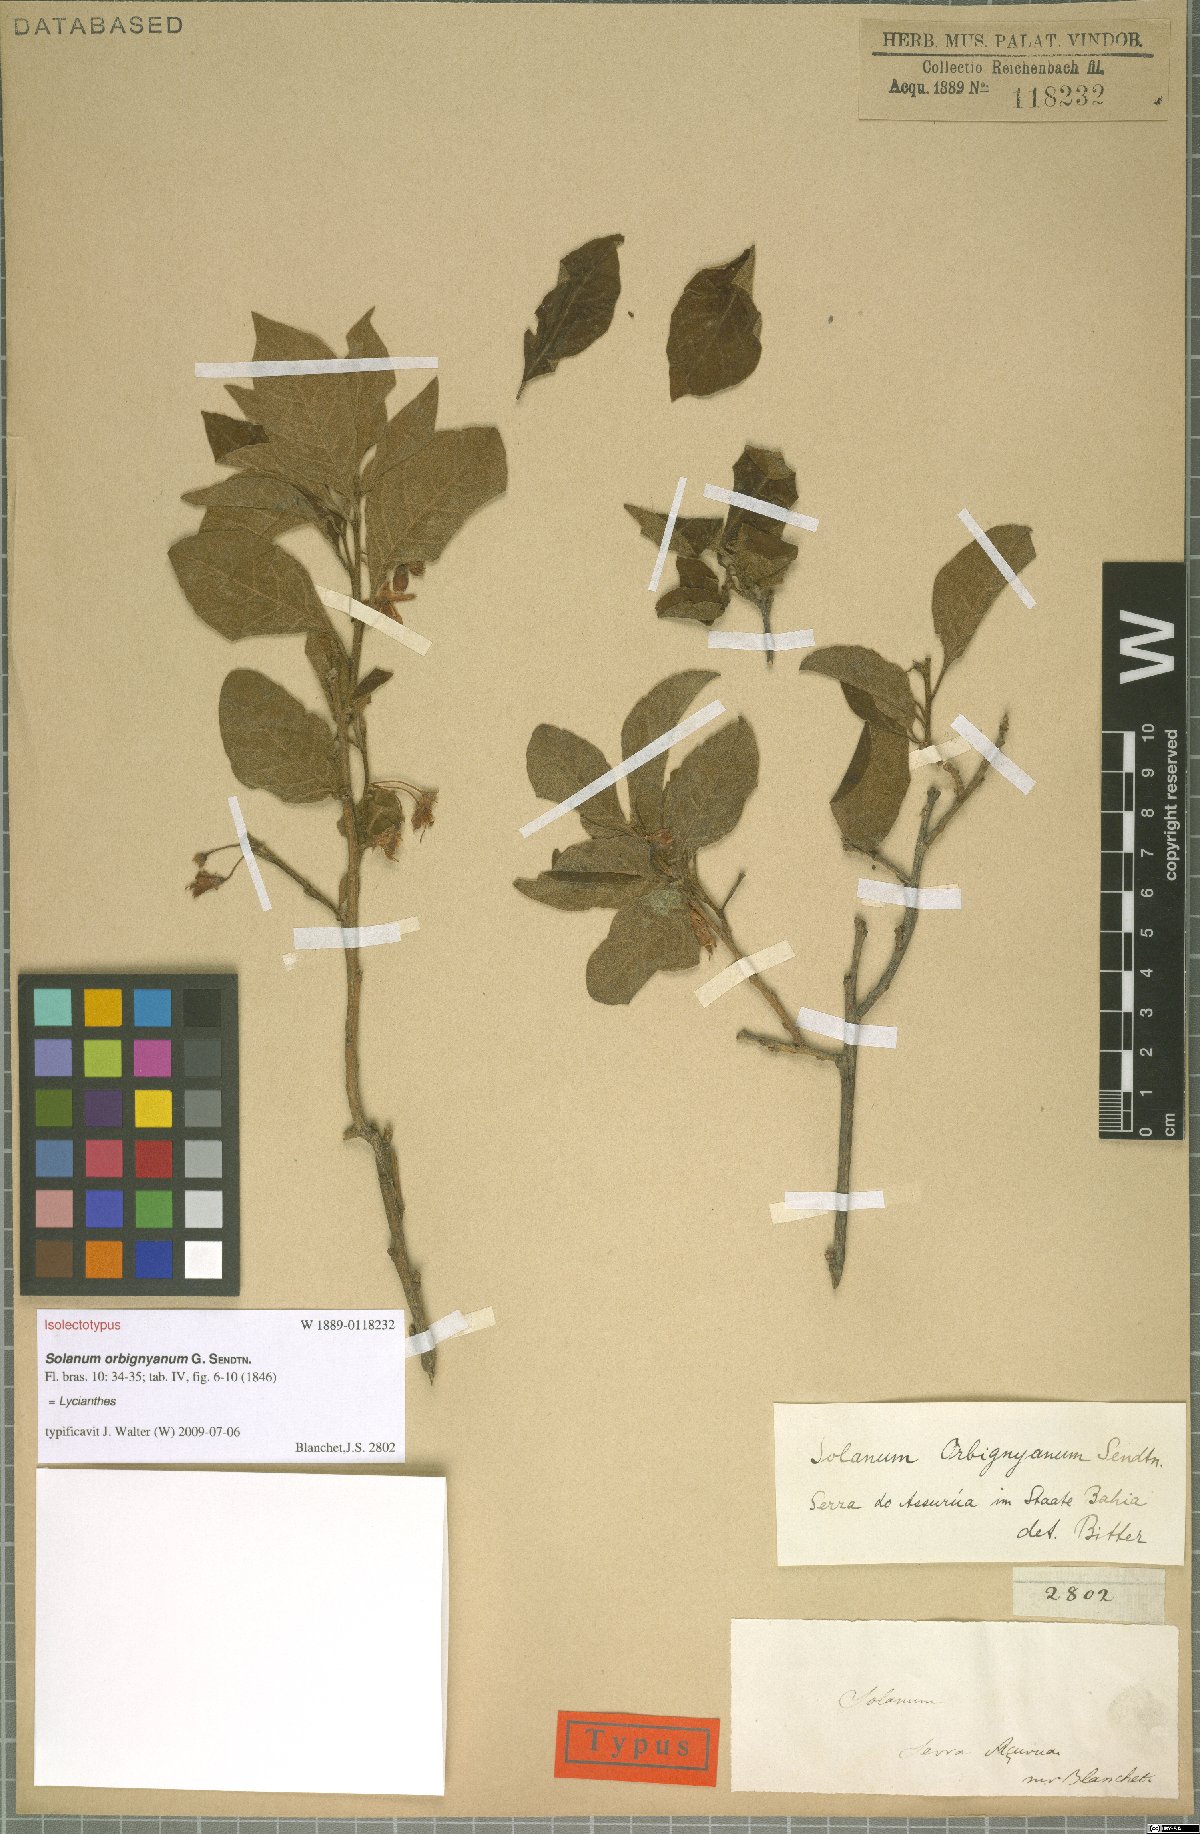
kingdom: Plantae
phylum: Tracheophyta
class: Magnoliopsida
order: Solanales
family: Solanaceae
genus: Solanum
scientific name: Solanum orbignianum
